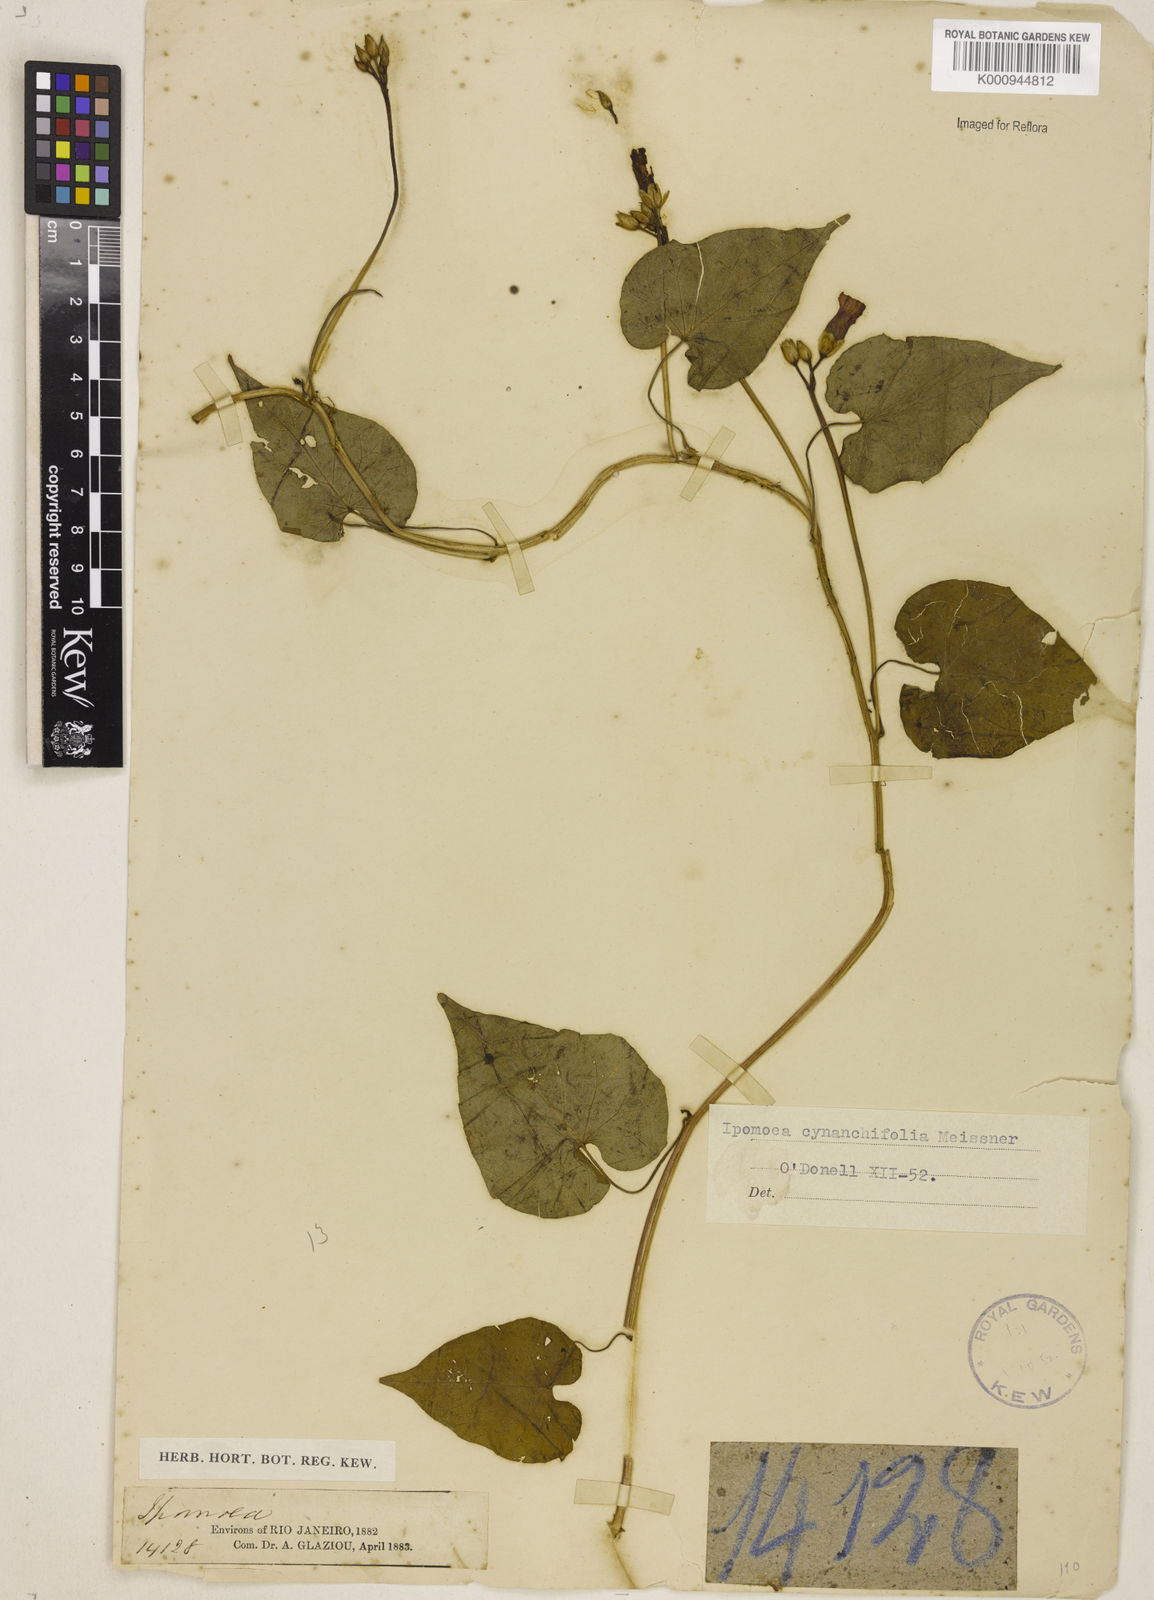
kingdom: Plantae
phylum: Tracheophyta
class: Magnoliopsida
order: Solanales
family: Convolvulaceae
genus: Ipomoea
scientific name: Ipomoea cynanchifolia
